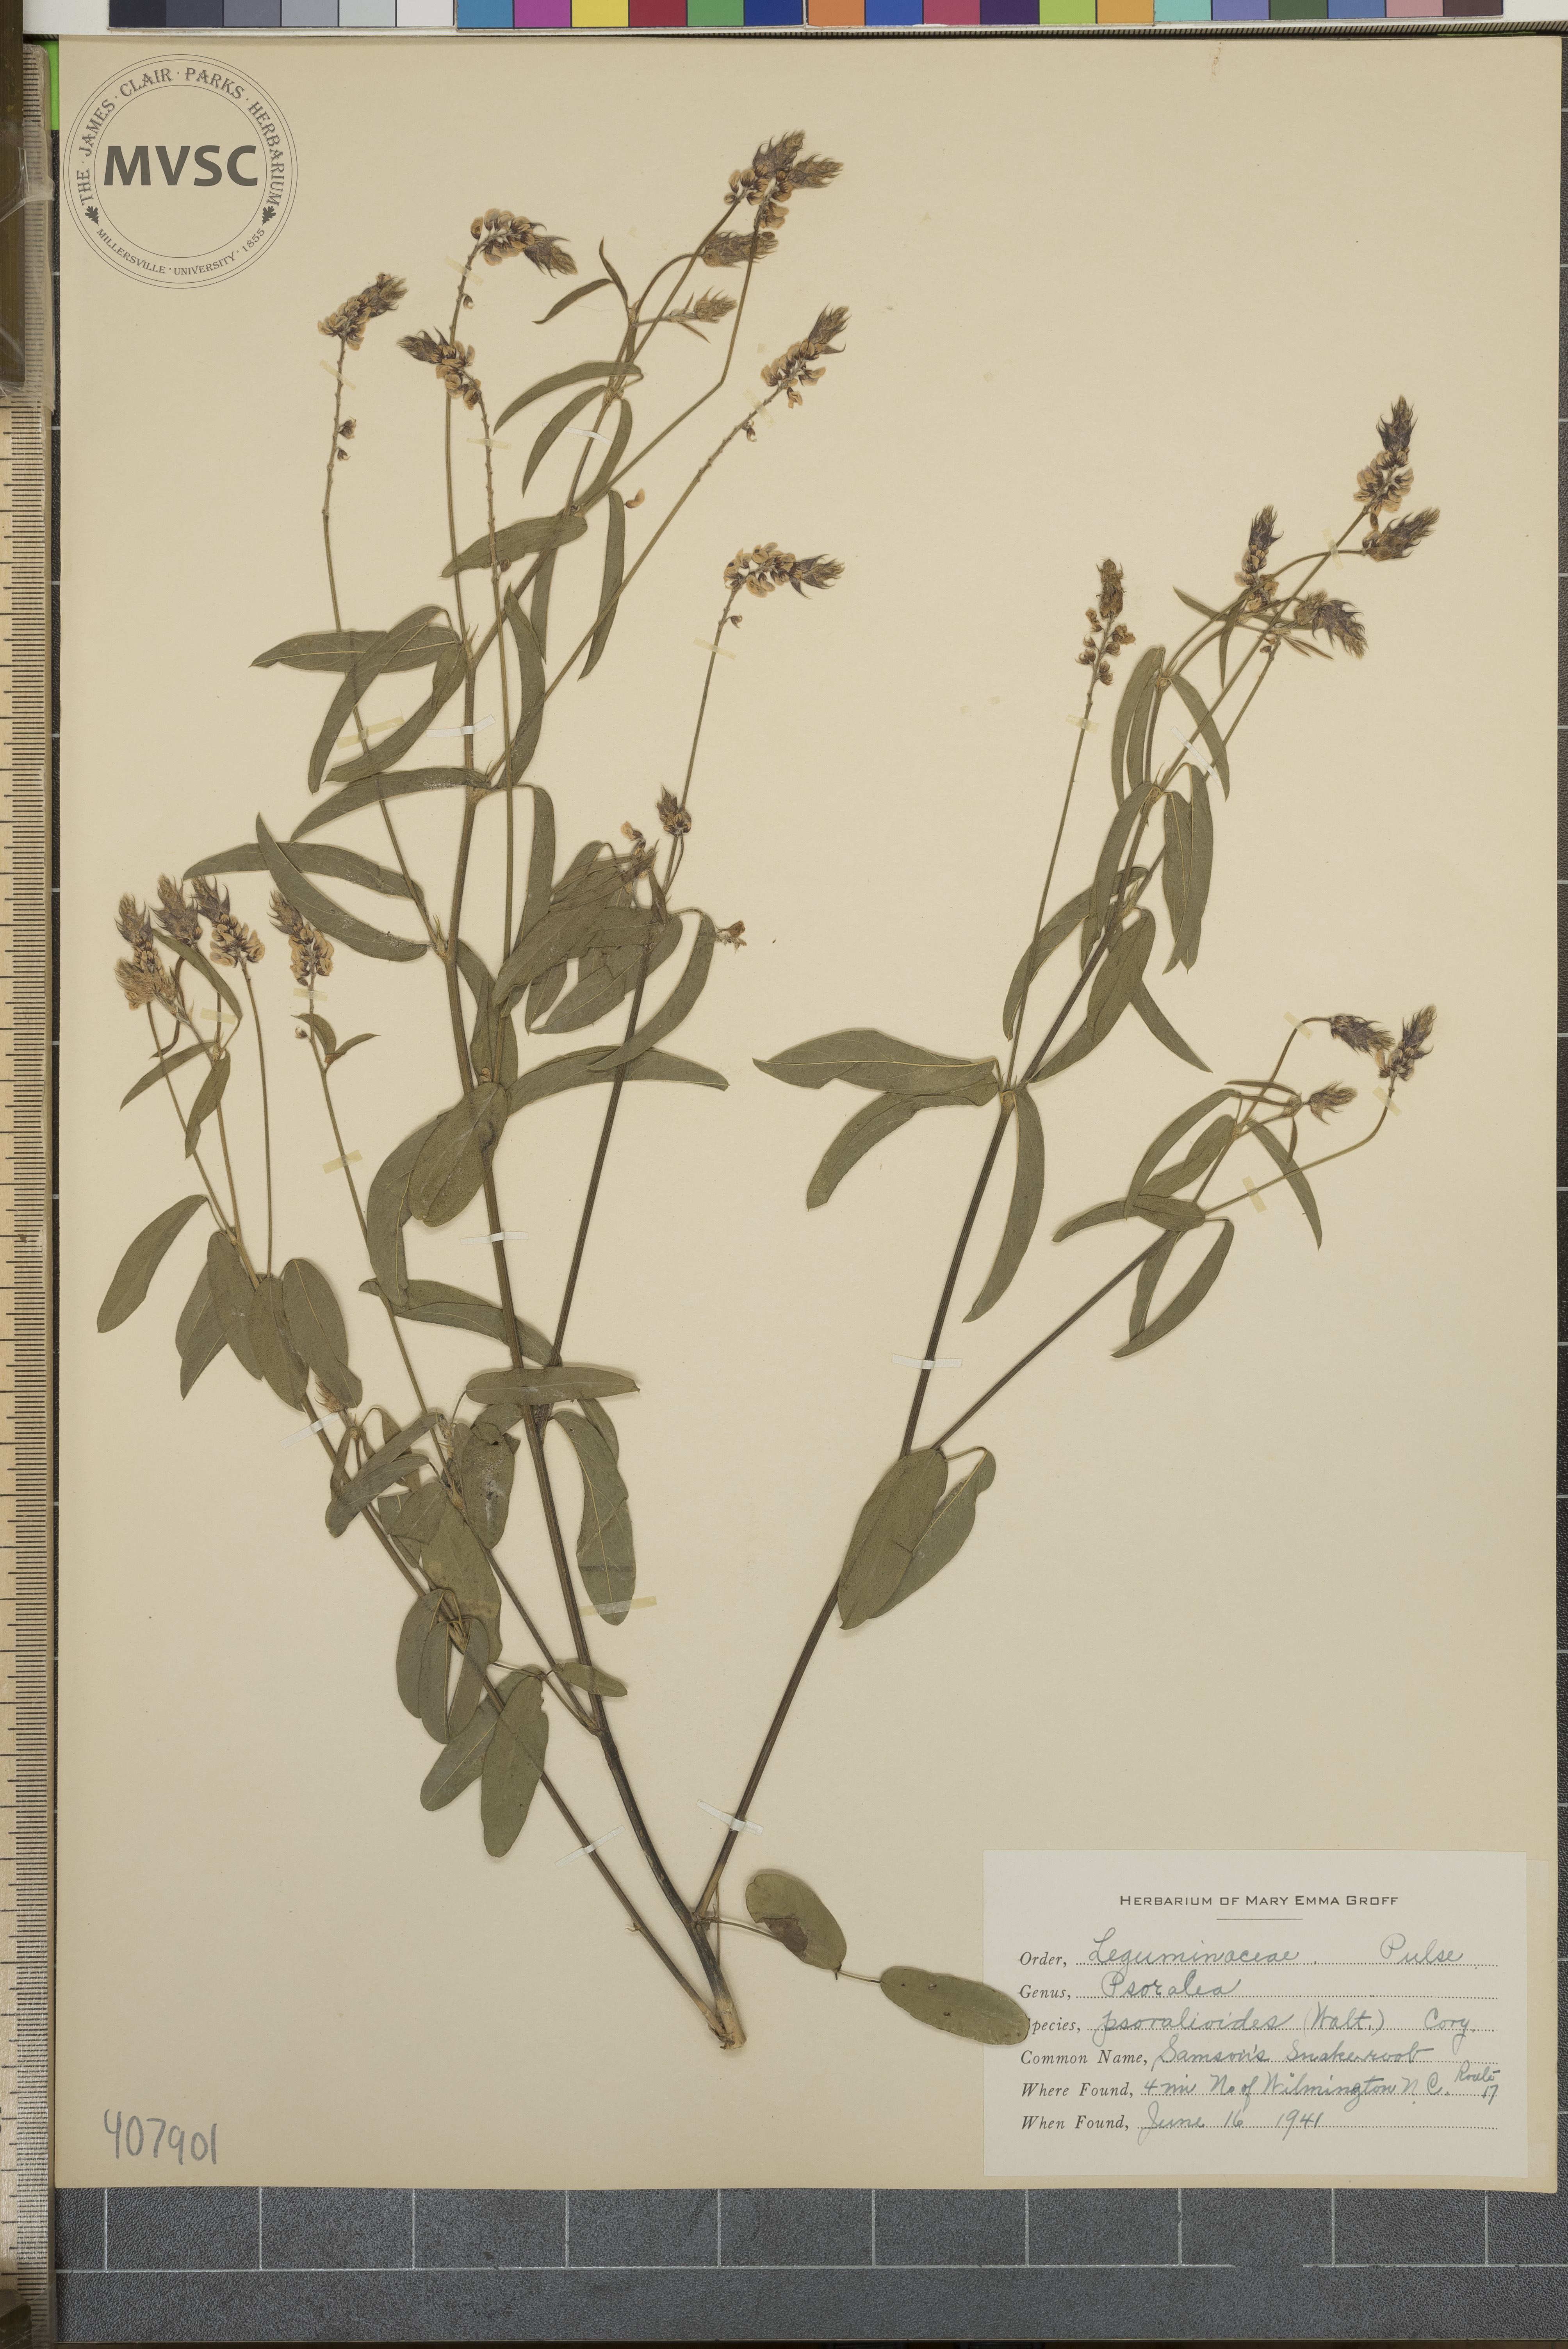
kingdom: Plantae
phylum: Tracheophyta
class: Magnoliopsida
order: Fabales
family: Fabaceae
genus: Orbexilum
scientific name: Orbexilum psoralioides
